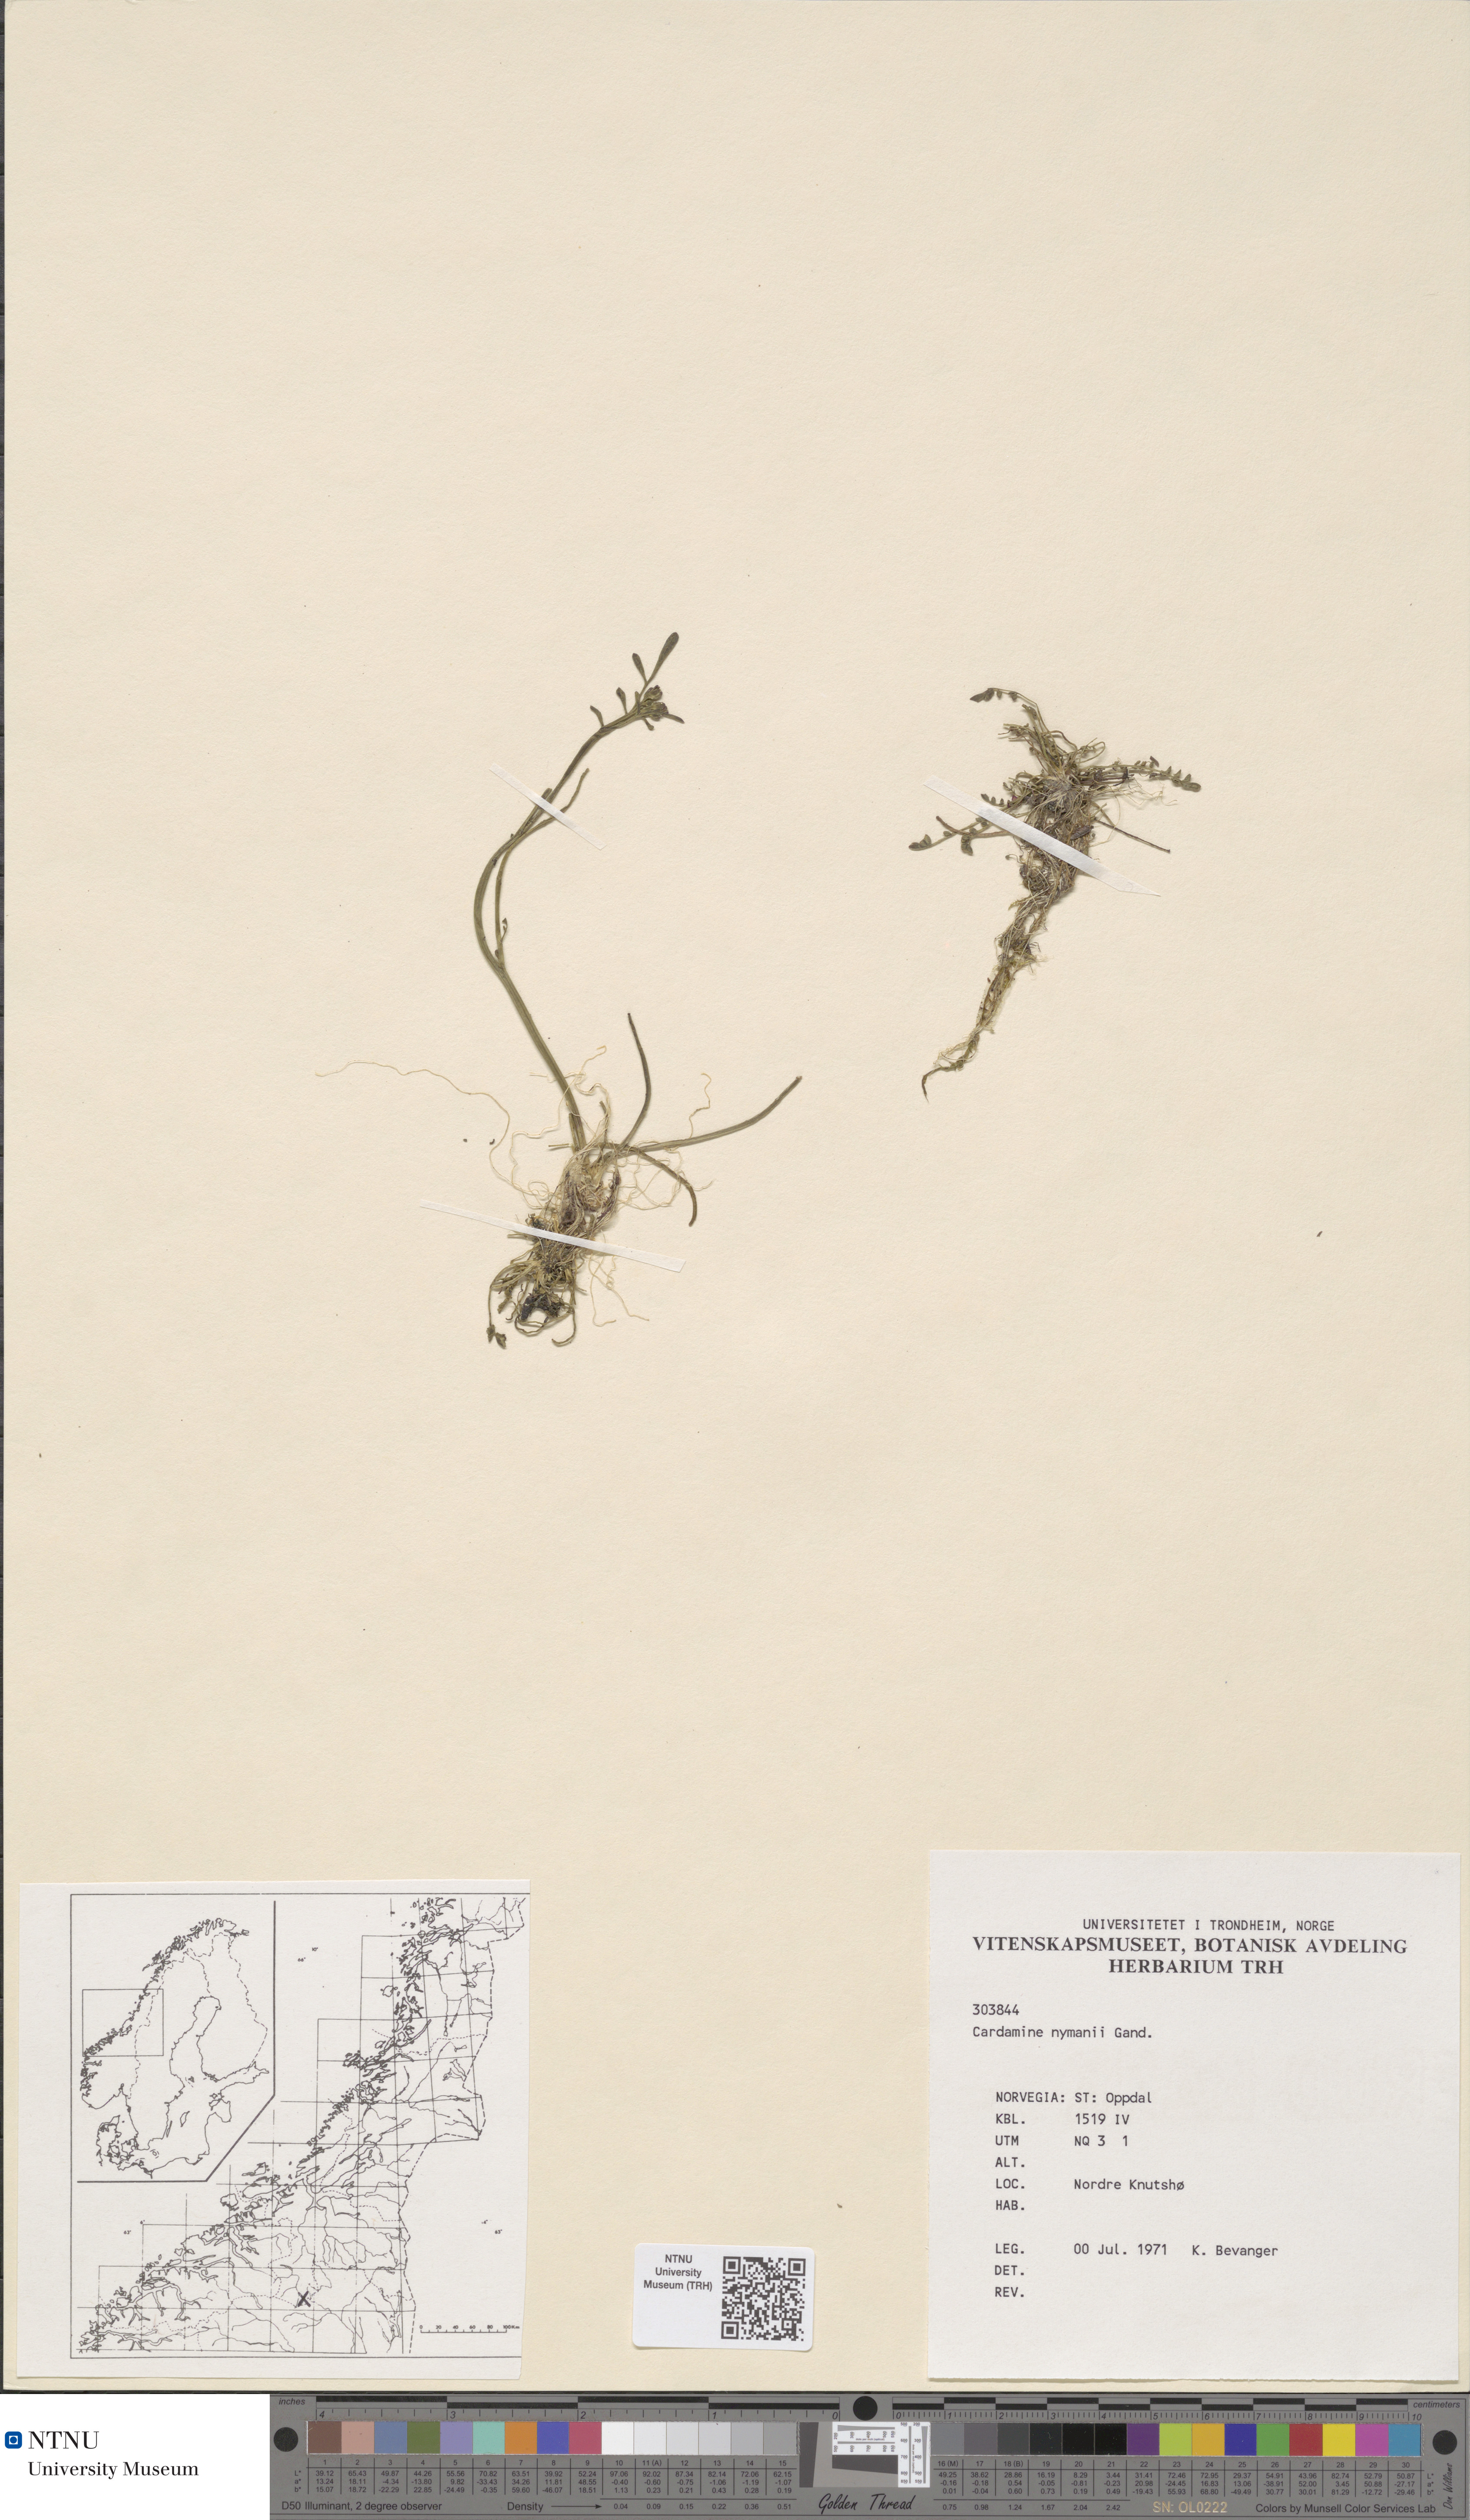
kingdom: Plantae
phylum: Tracheophyta
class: Magnoliopsida
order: Brassicales
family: Brassicaceae
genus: Cardamine
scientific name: Cardamine nymanii
